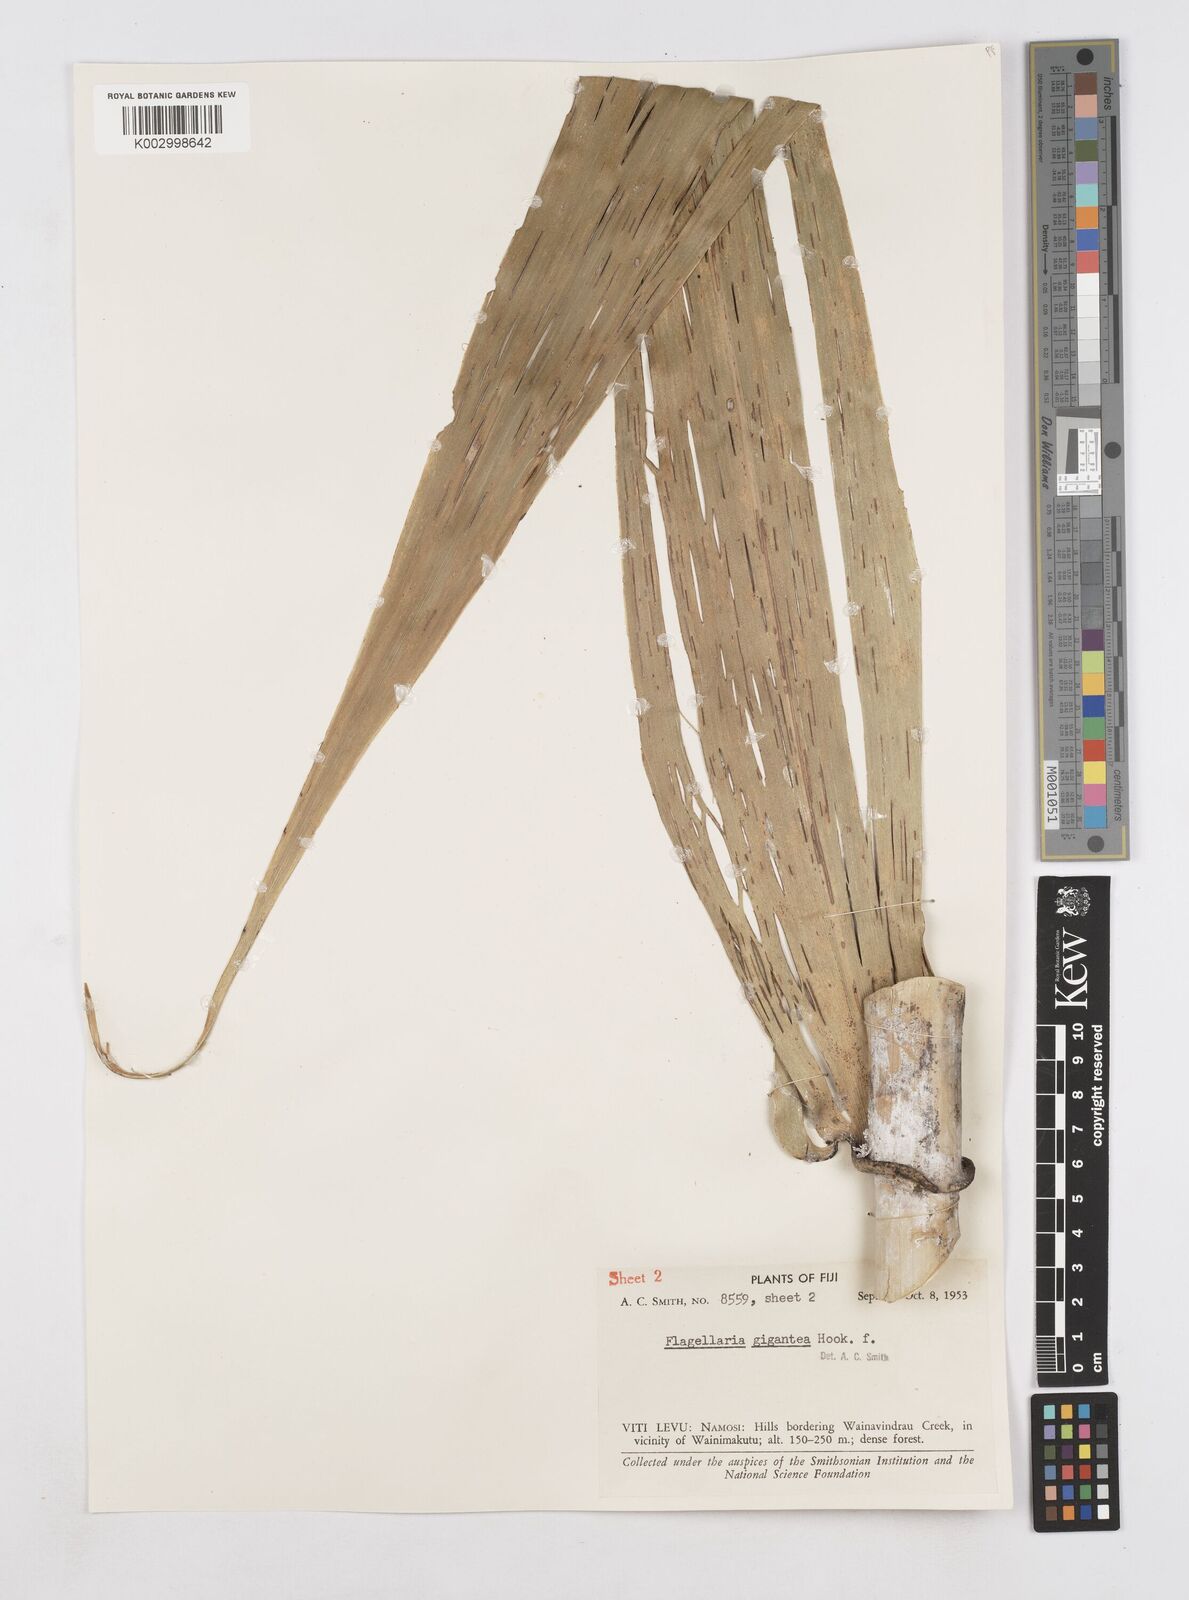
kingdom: Plantae
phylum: Tracheophyta
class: Liliopsida
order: Poales
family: Flagellariaceae
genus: Flagellaria
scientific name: Flagellaria gigantea
